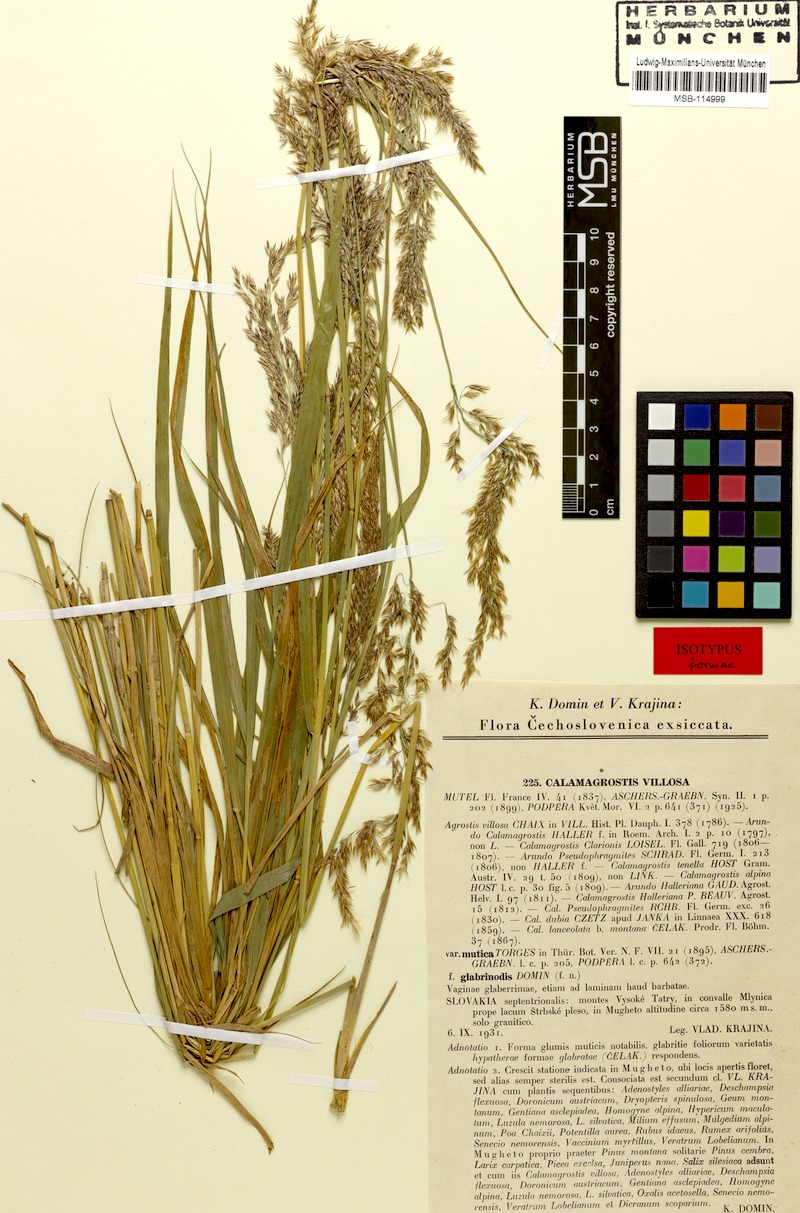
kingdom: Plantae
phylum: Tracheophyta
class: Liliopsida
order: Poales
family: Poaceae
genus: Calamagrostis
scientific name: Calamagrostis villosa
